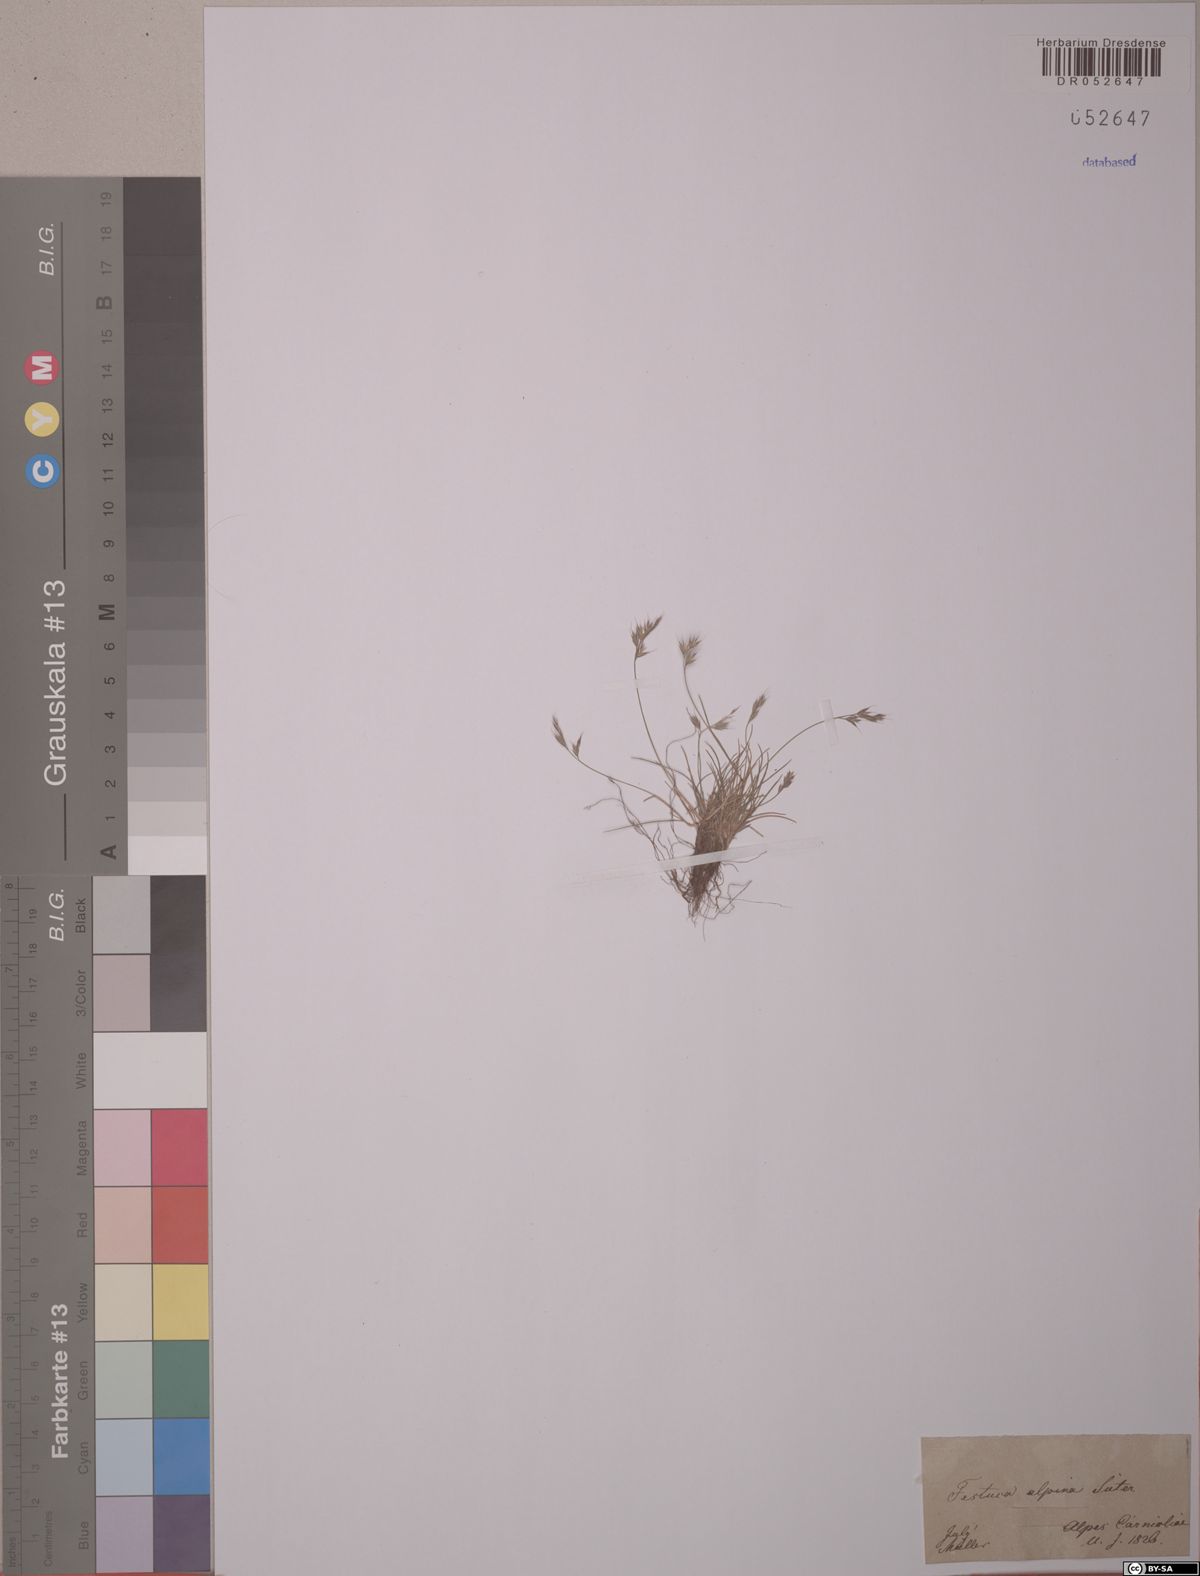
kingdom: Plantae
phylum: Tracheophyta
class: Liliopsida
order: Poales
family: Poaceae
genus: Festuca
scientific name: Festuca alpina
